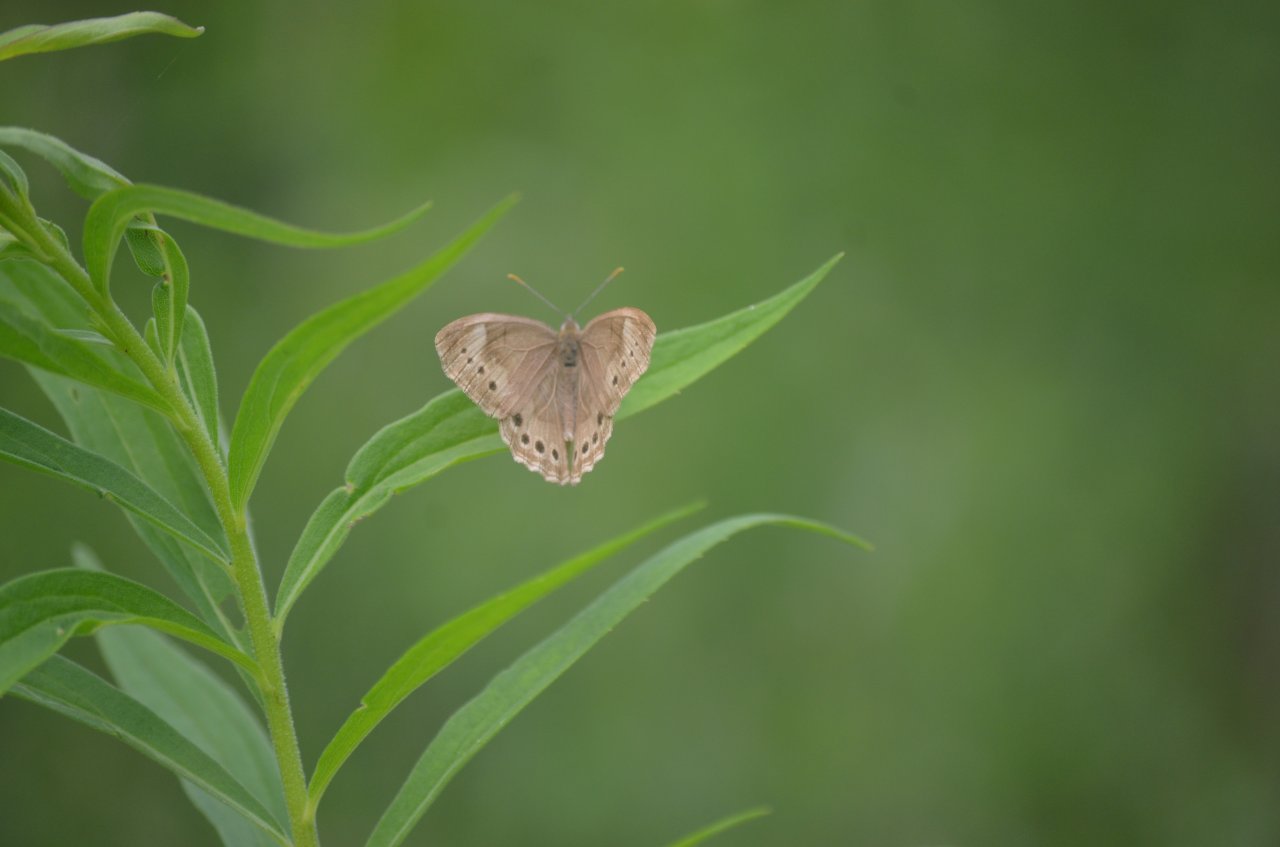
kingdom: Animalia
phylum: Arthropoda
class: Insecta
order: Lepidoptera
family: Nymphalidae
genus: Lethe
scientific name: Lethe
